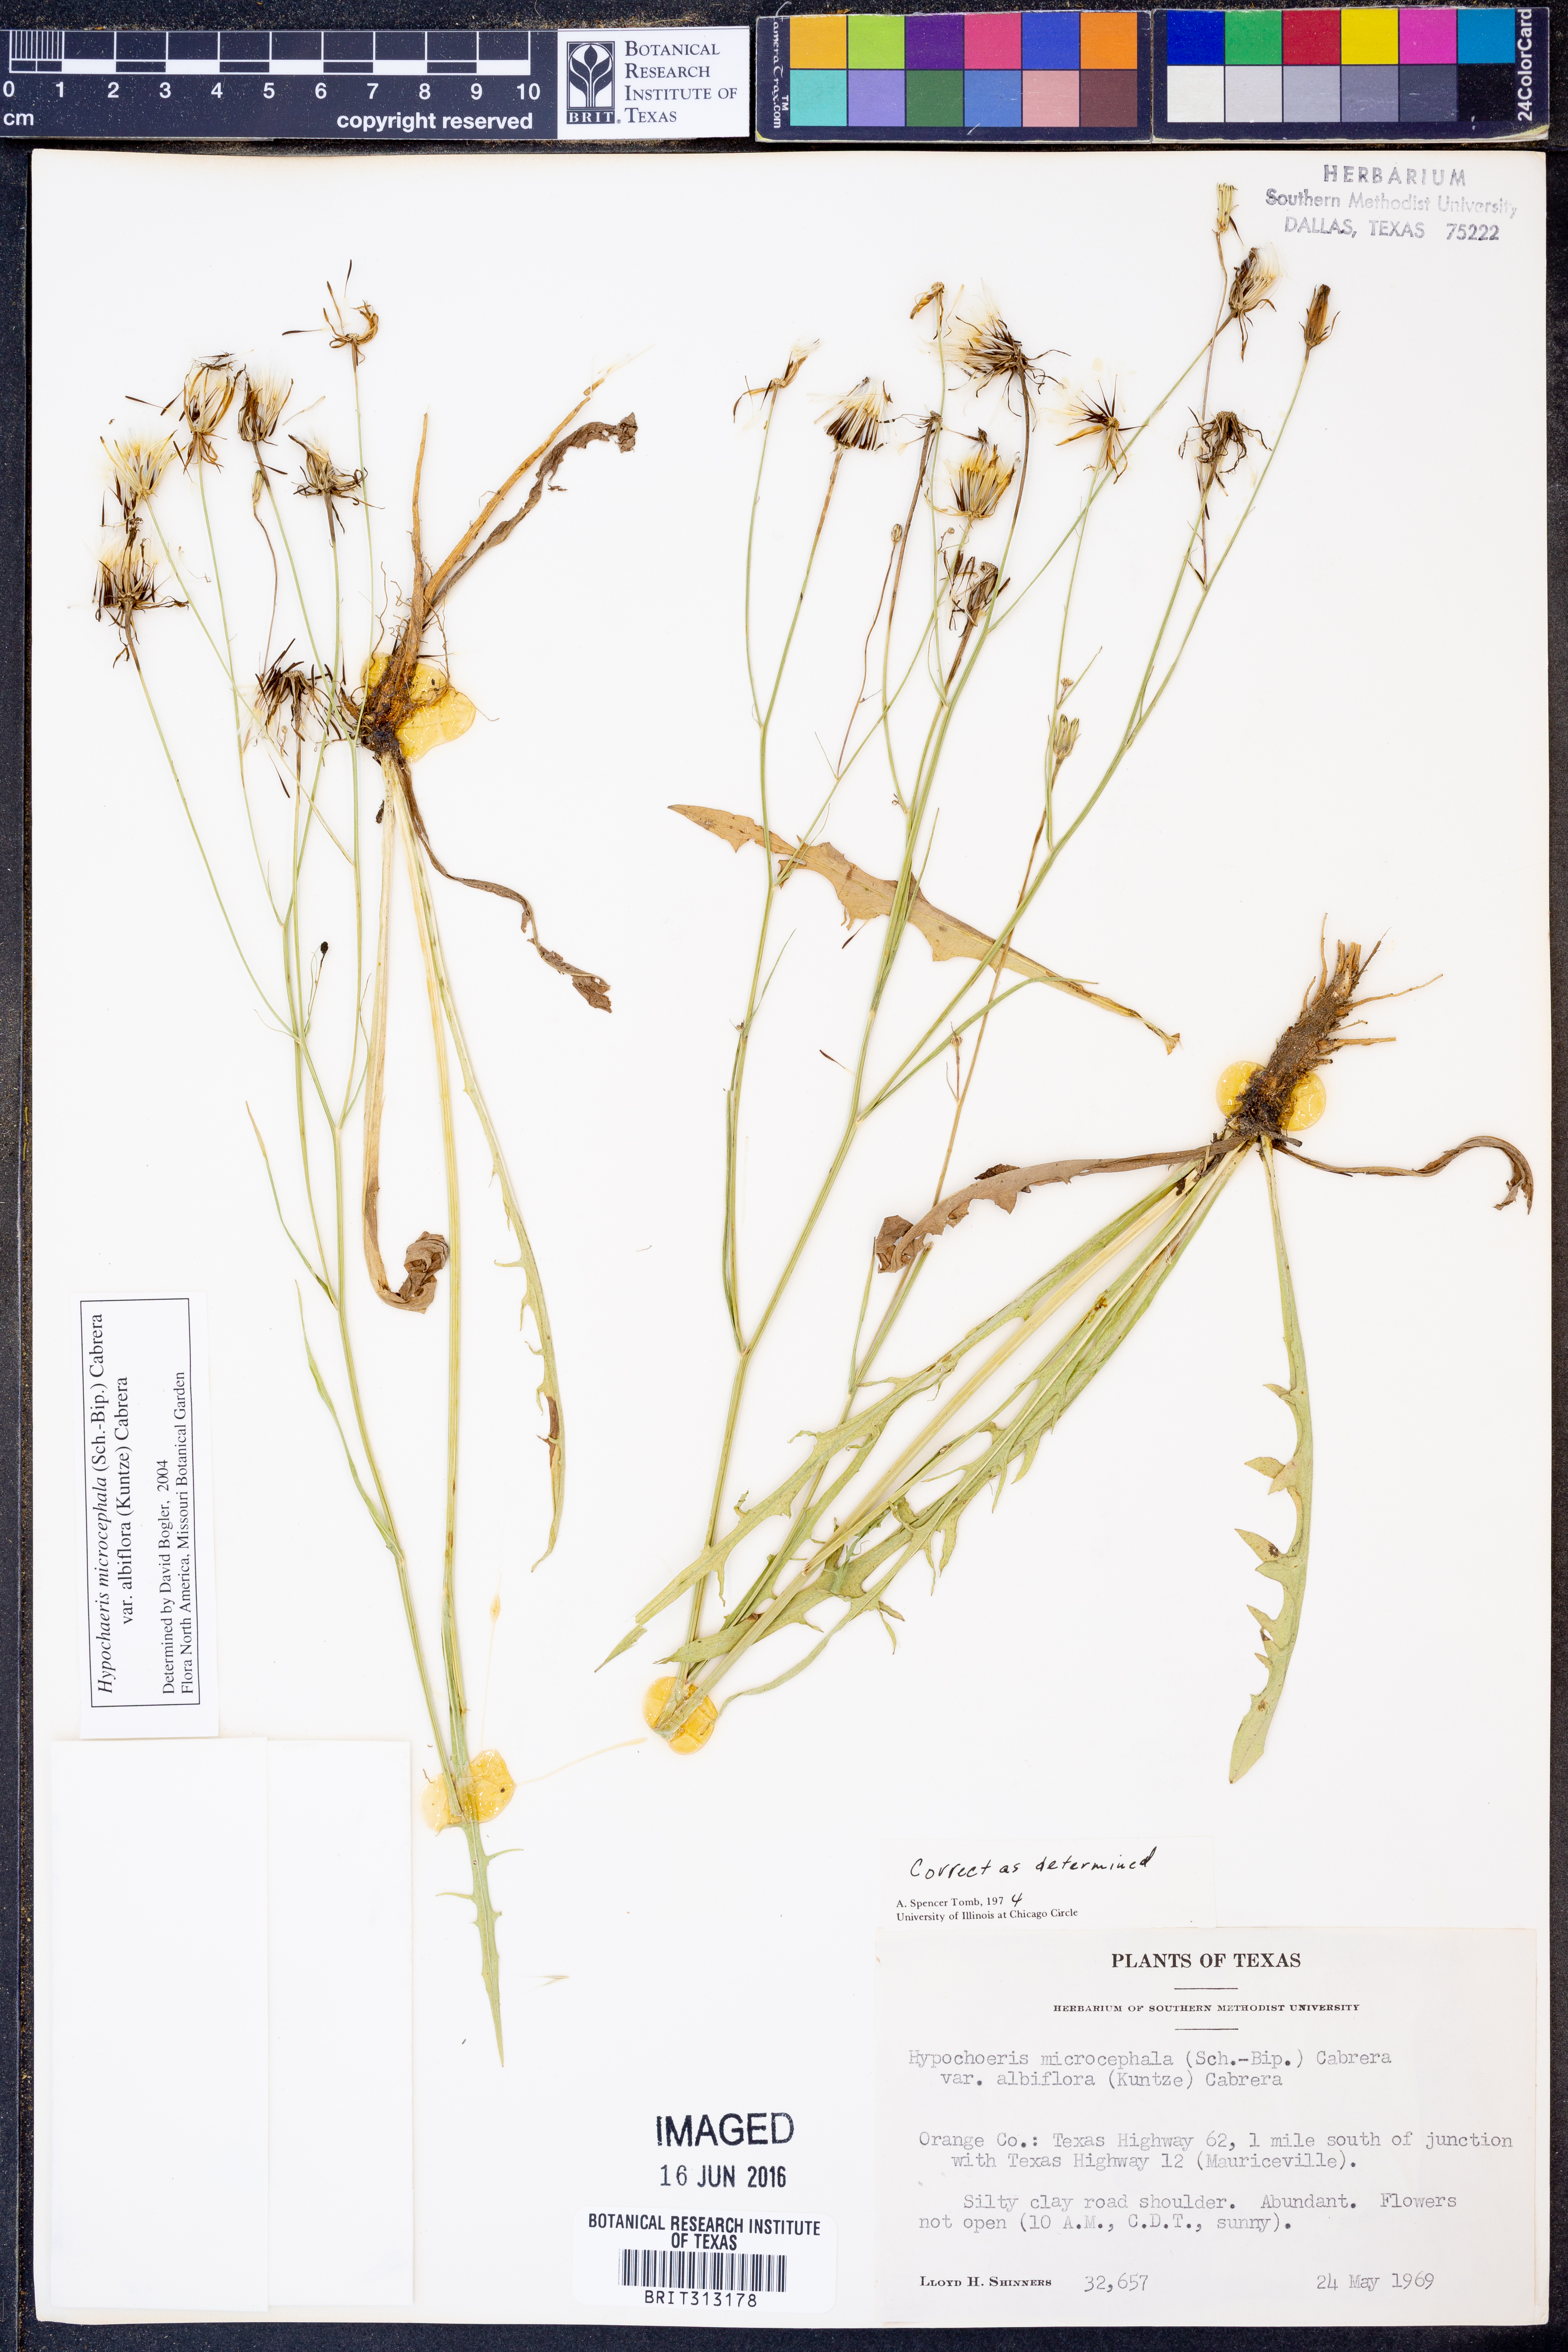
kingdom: Plantae
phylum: Tracheophyta
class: Magnoliopsida
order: Asterales
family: Asteraceae
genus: Hypochaeris
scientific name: Hypochaeris albiflora
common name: White flatweed
